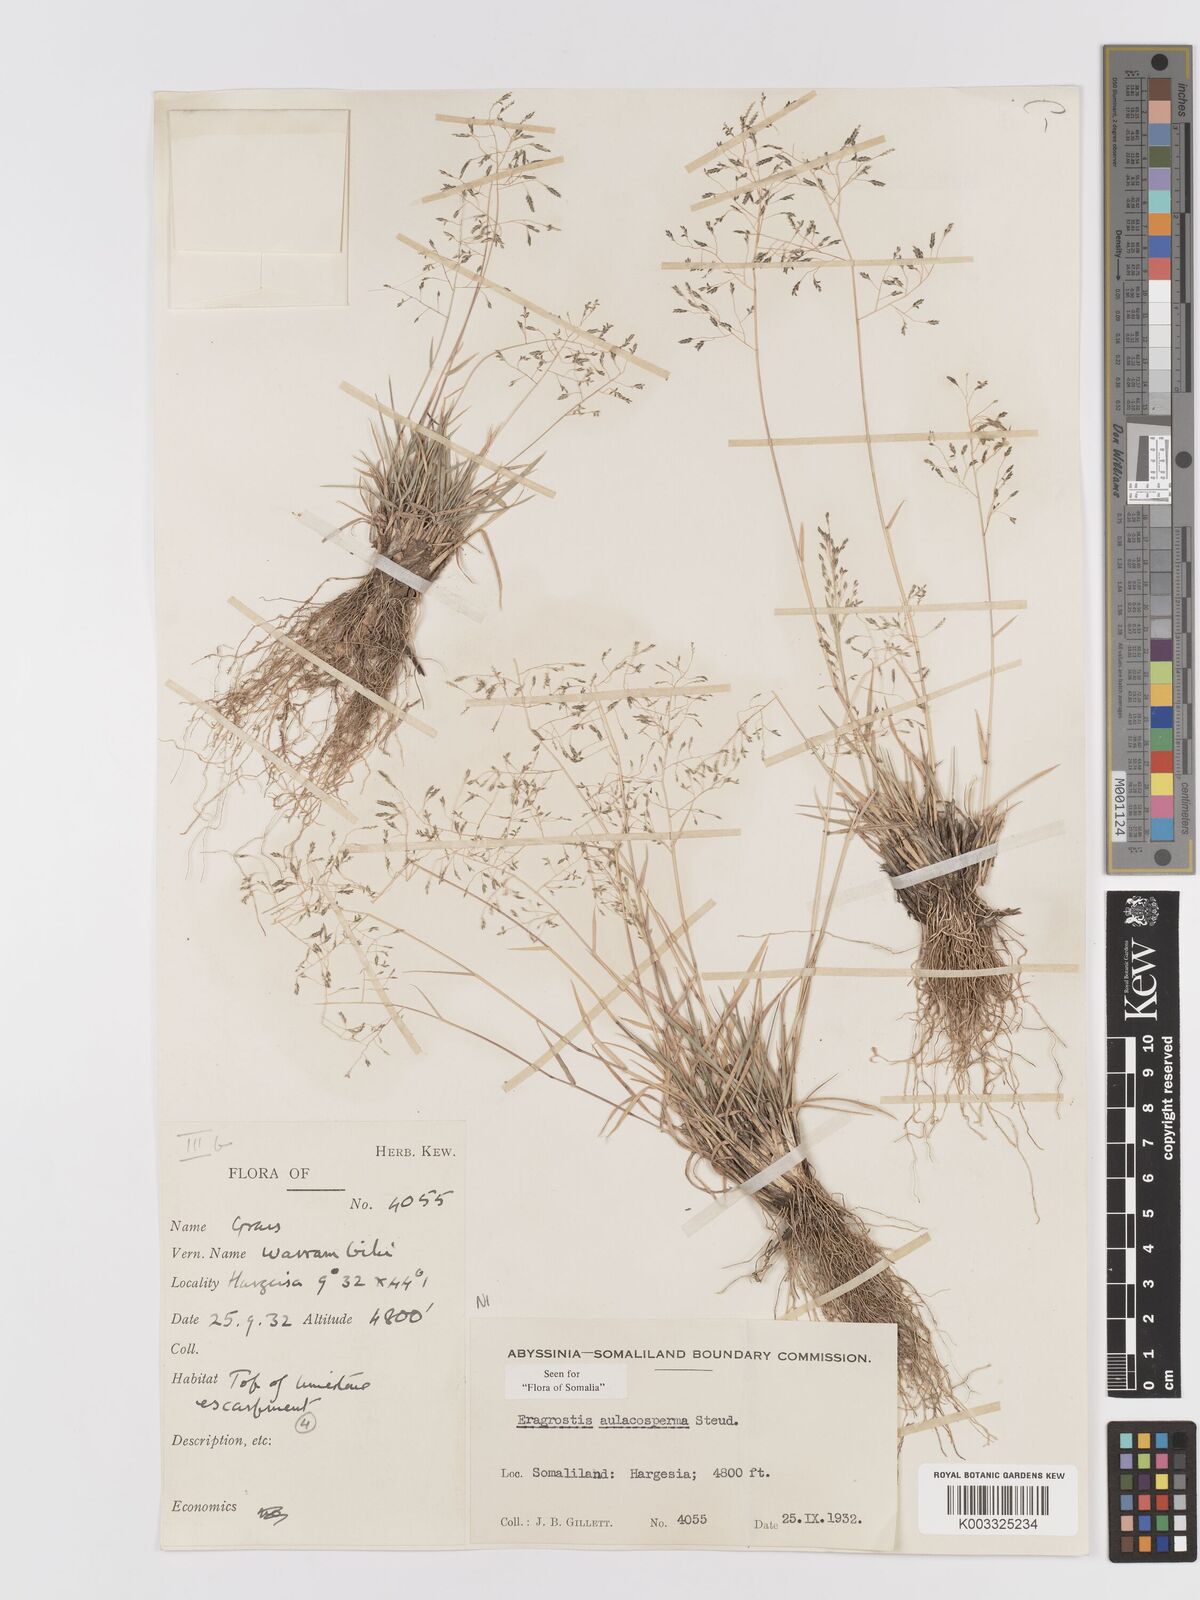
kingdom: Plantae
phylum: Tracheophyta
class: Liliopsida
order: Poales
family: Poaceae
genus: Eragrostis
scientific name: Eragrostis papposa
